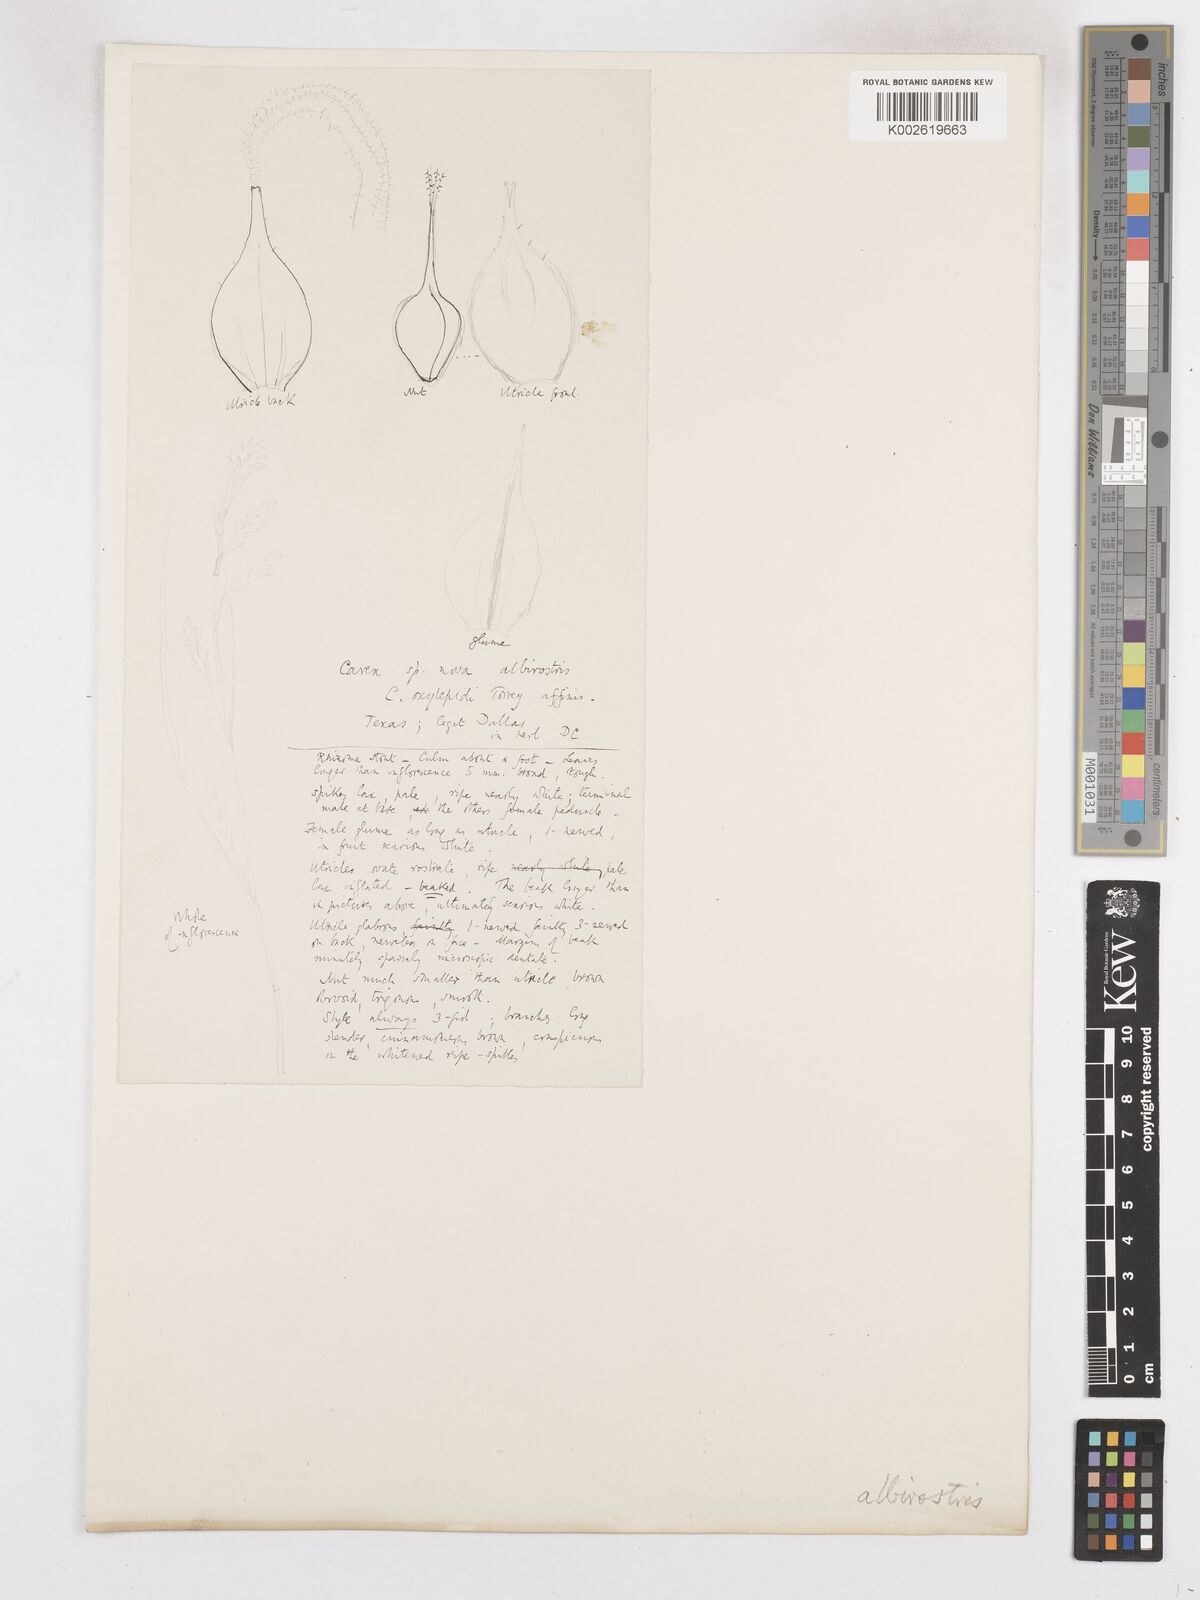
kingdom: Plantae
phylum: Tracheophyta
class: Liliopsida
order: Poales
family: Cyperaceae
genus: Carex
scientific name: Carex davisii
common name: Davis' sedge
